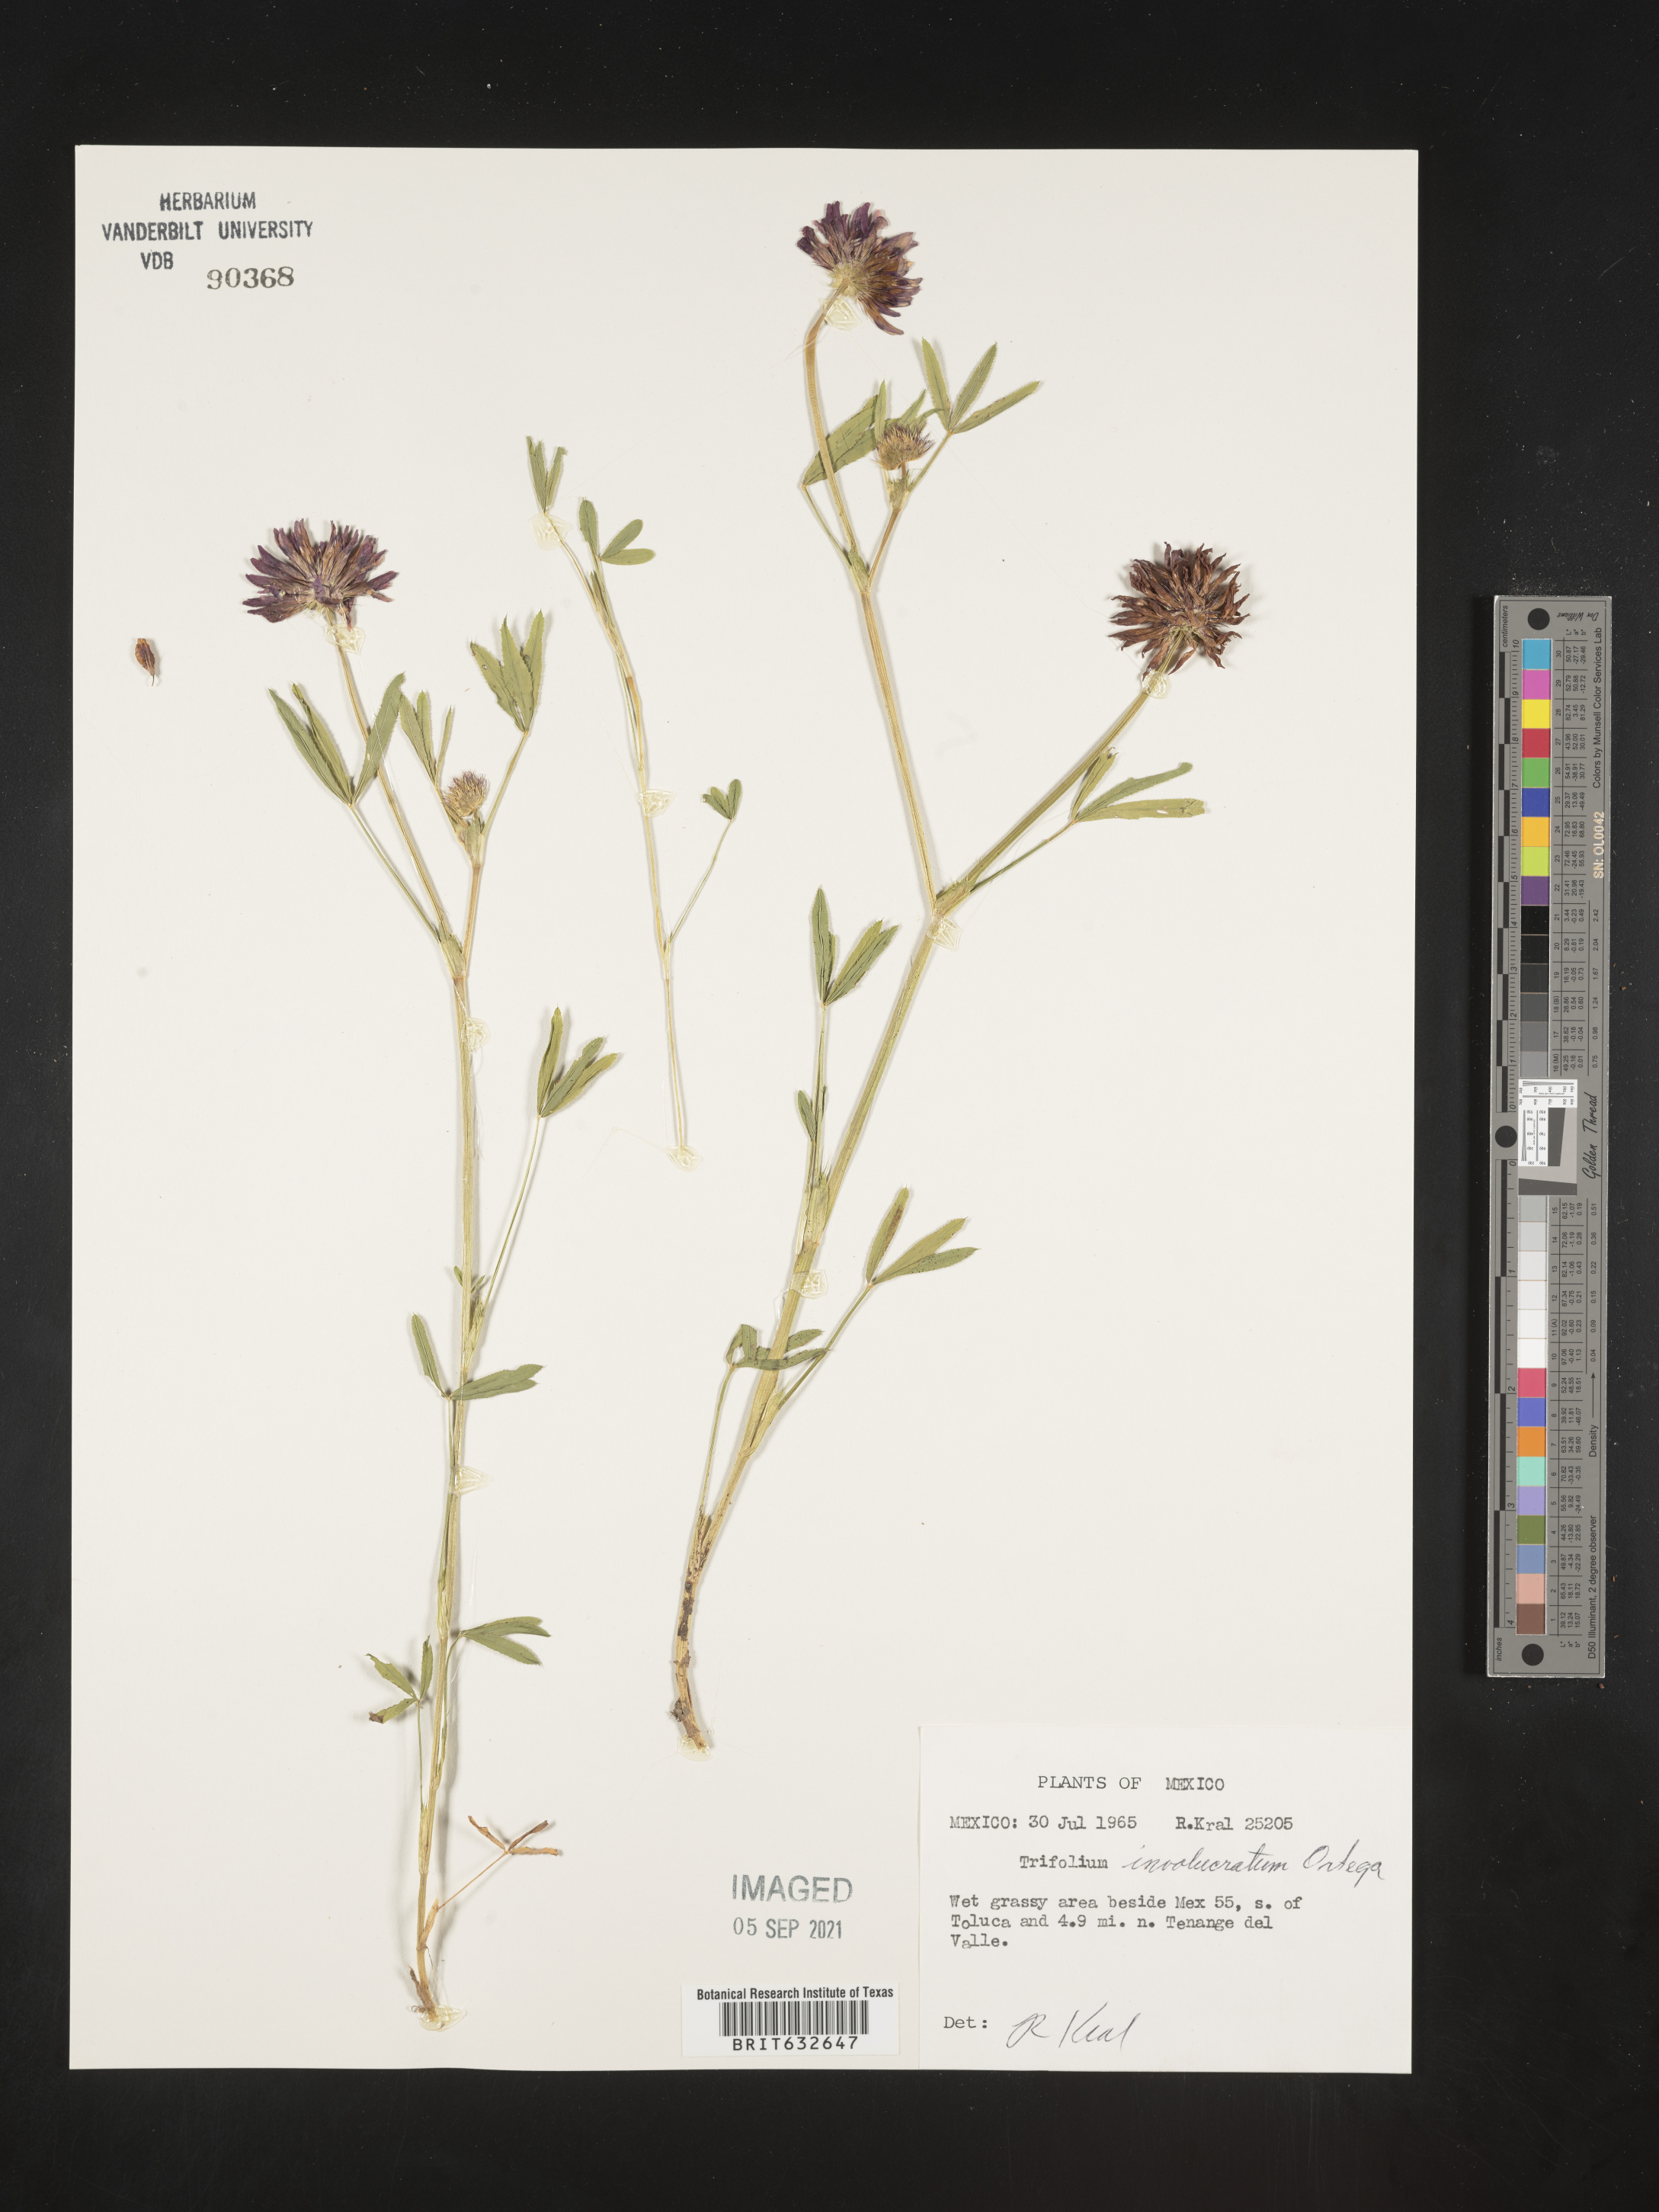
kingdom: Plantae
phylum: Tracheophyta
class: Magnoliopsida
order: Fabales
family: Fabaceae
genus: Trifolium
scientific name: Trifolium
